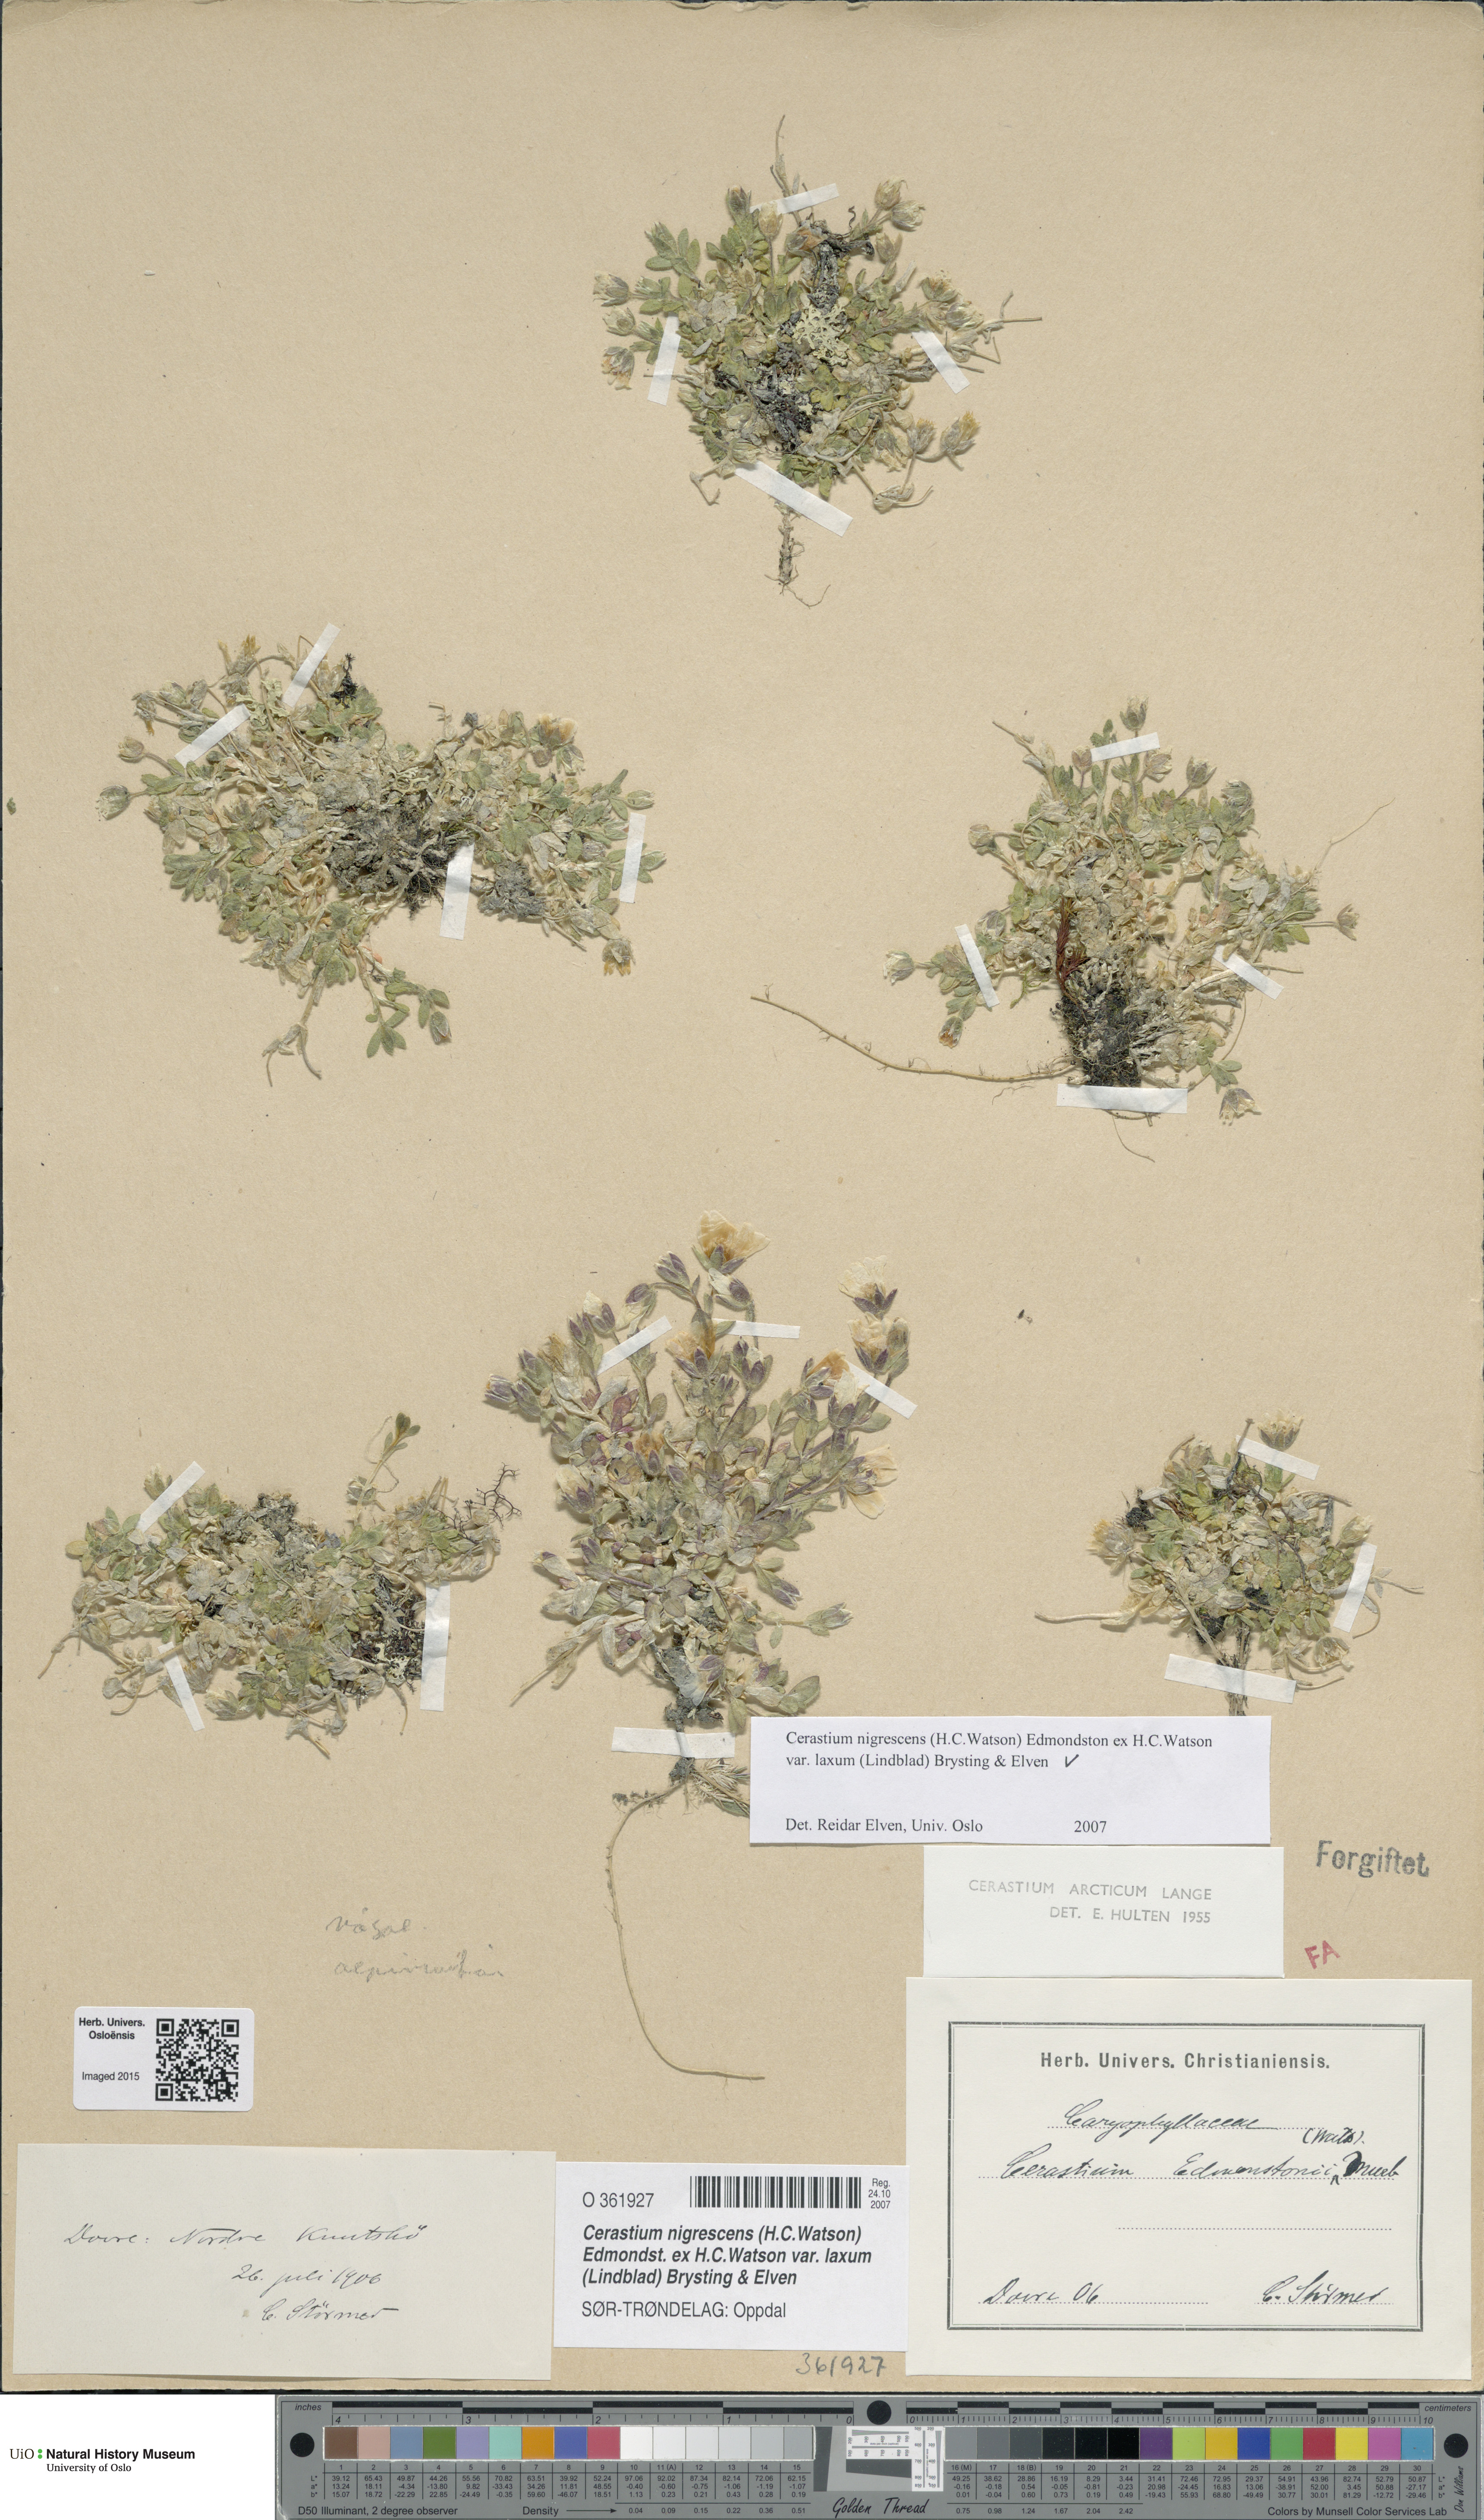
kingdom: Plantae
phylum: Tracheophyta
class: Magnoliopsida
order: Caryophyllales
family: Caryophyllaceae
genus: Cerastium
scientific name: Cerastium nigrescens
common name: Shetland mouse-ear
